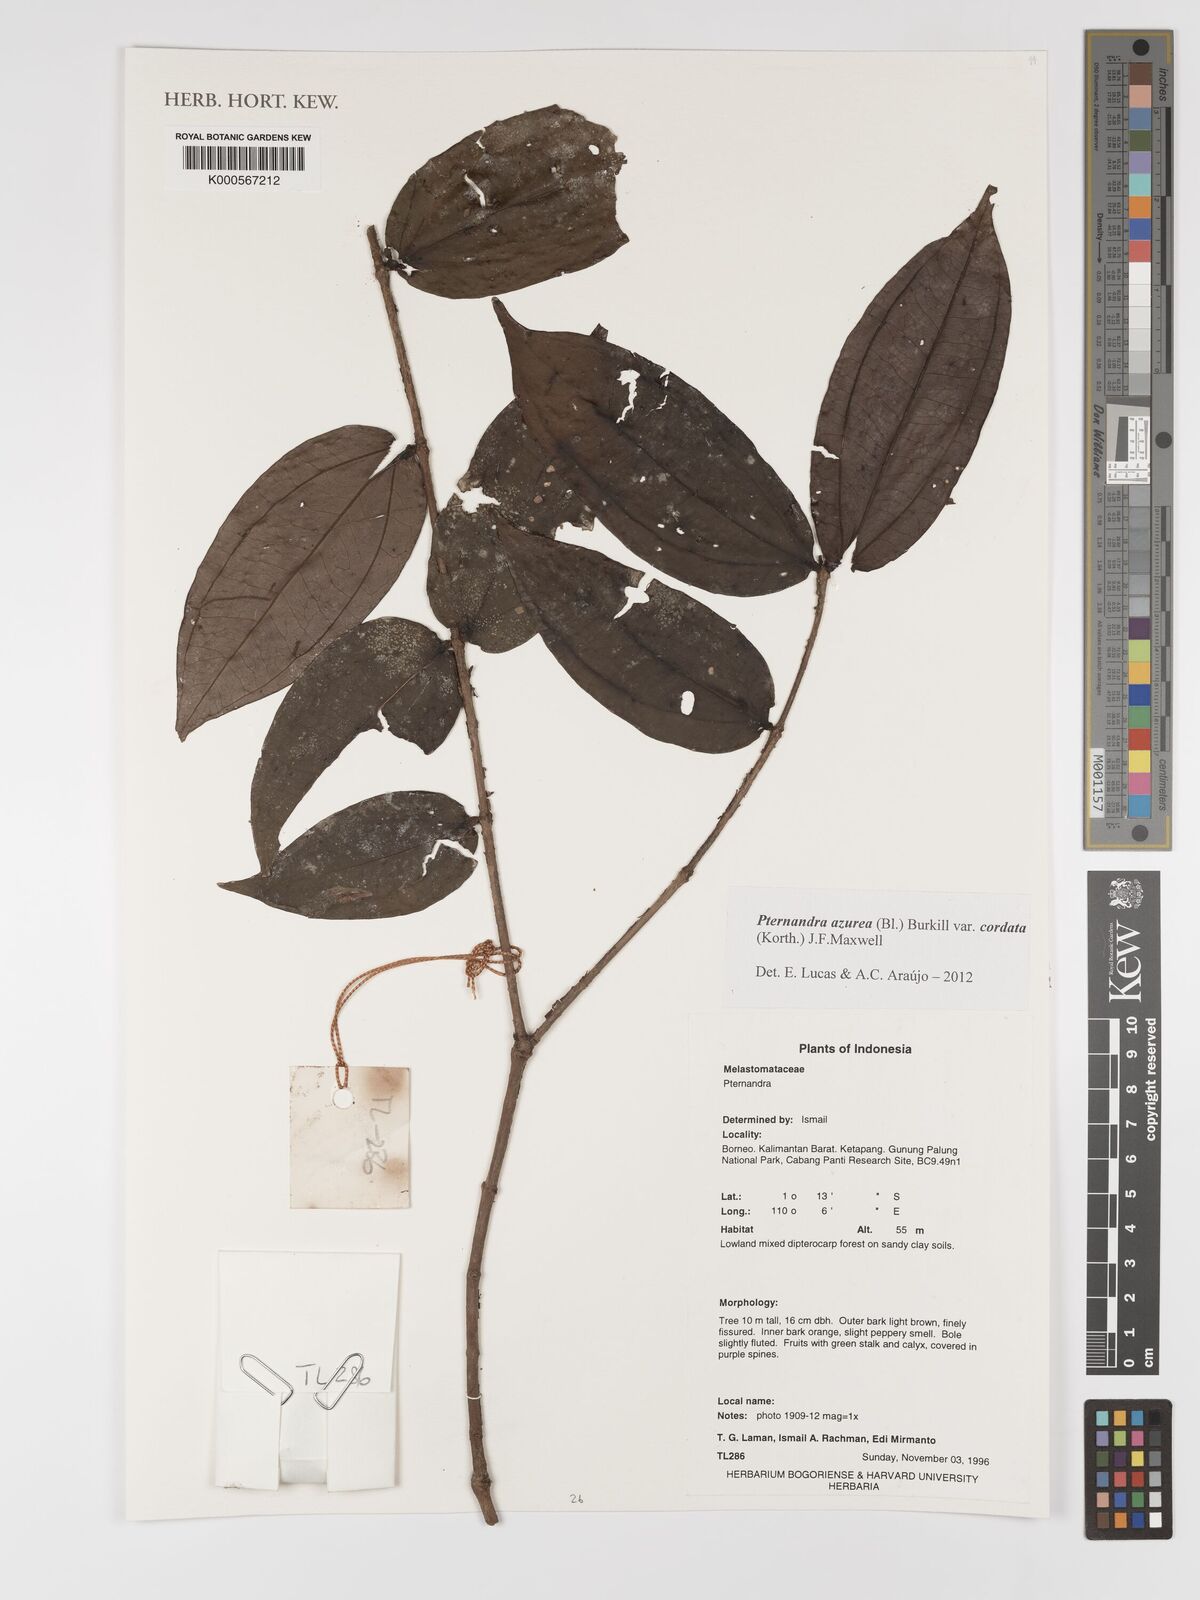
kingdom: Plantae
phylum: Tracheophyta
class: Magnoliopsida
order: Myrtales
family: Melastomataceae
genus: Pternandra
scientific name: Pternandra azurea
